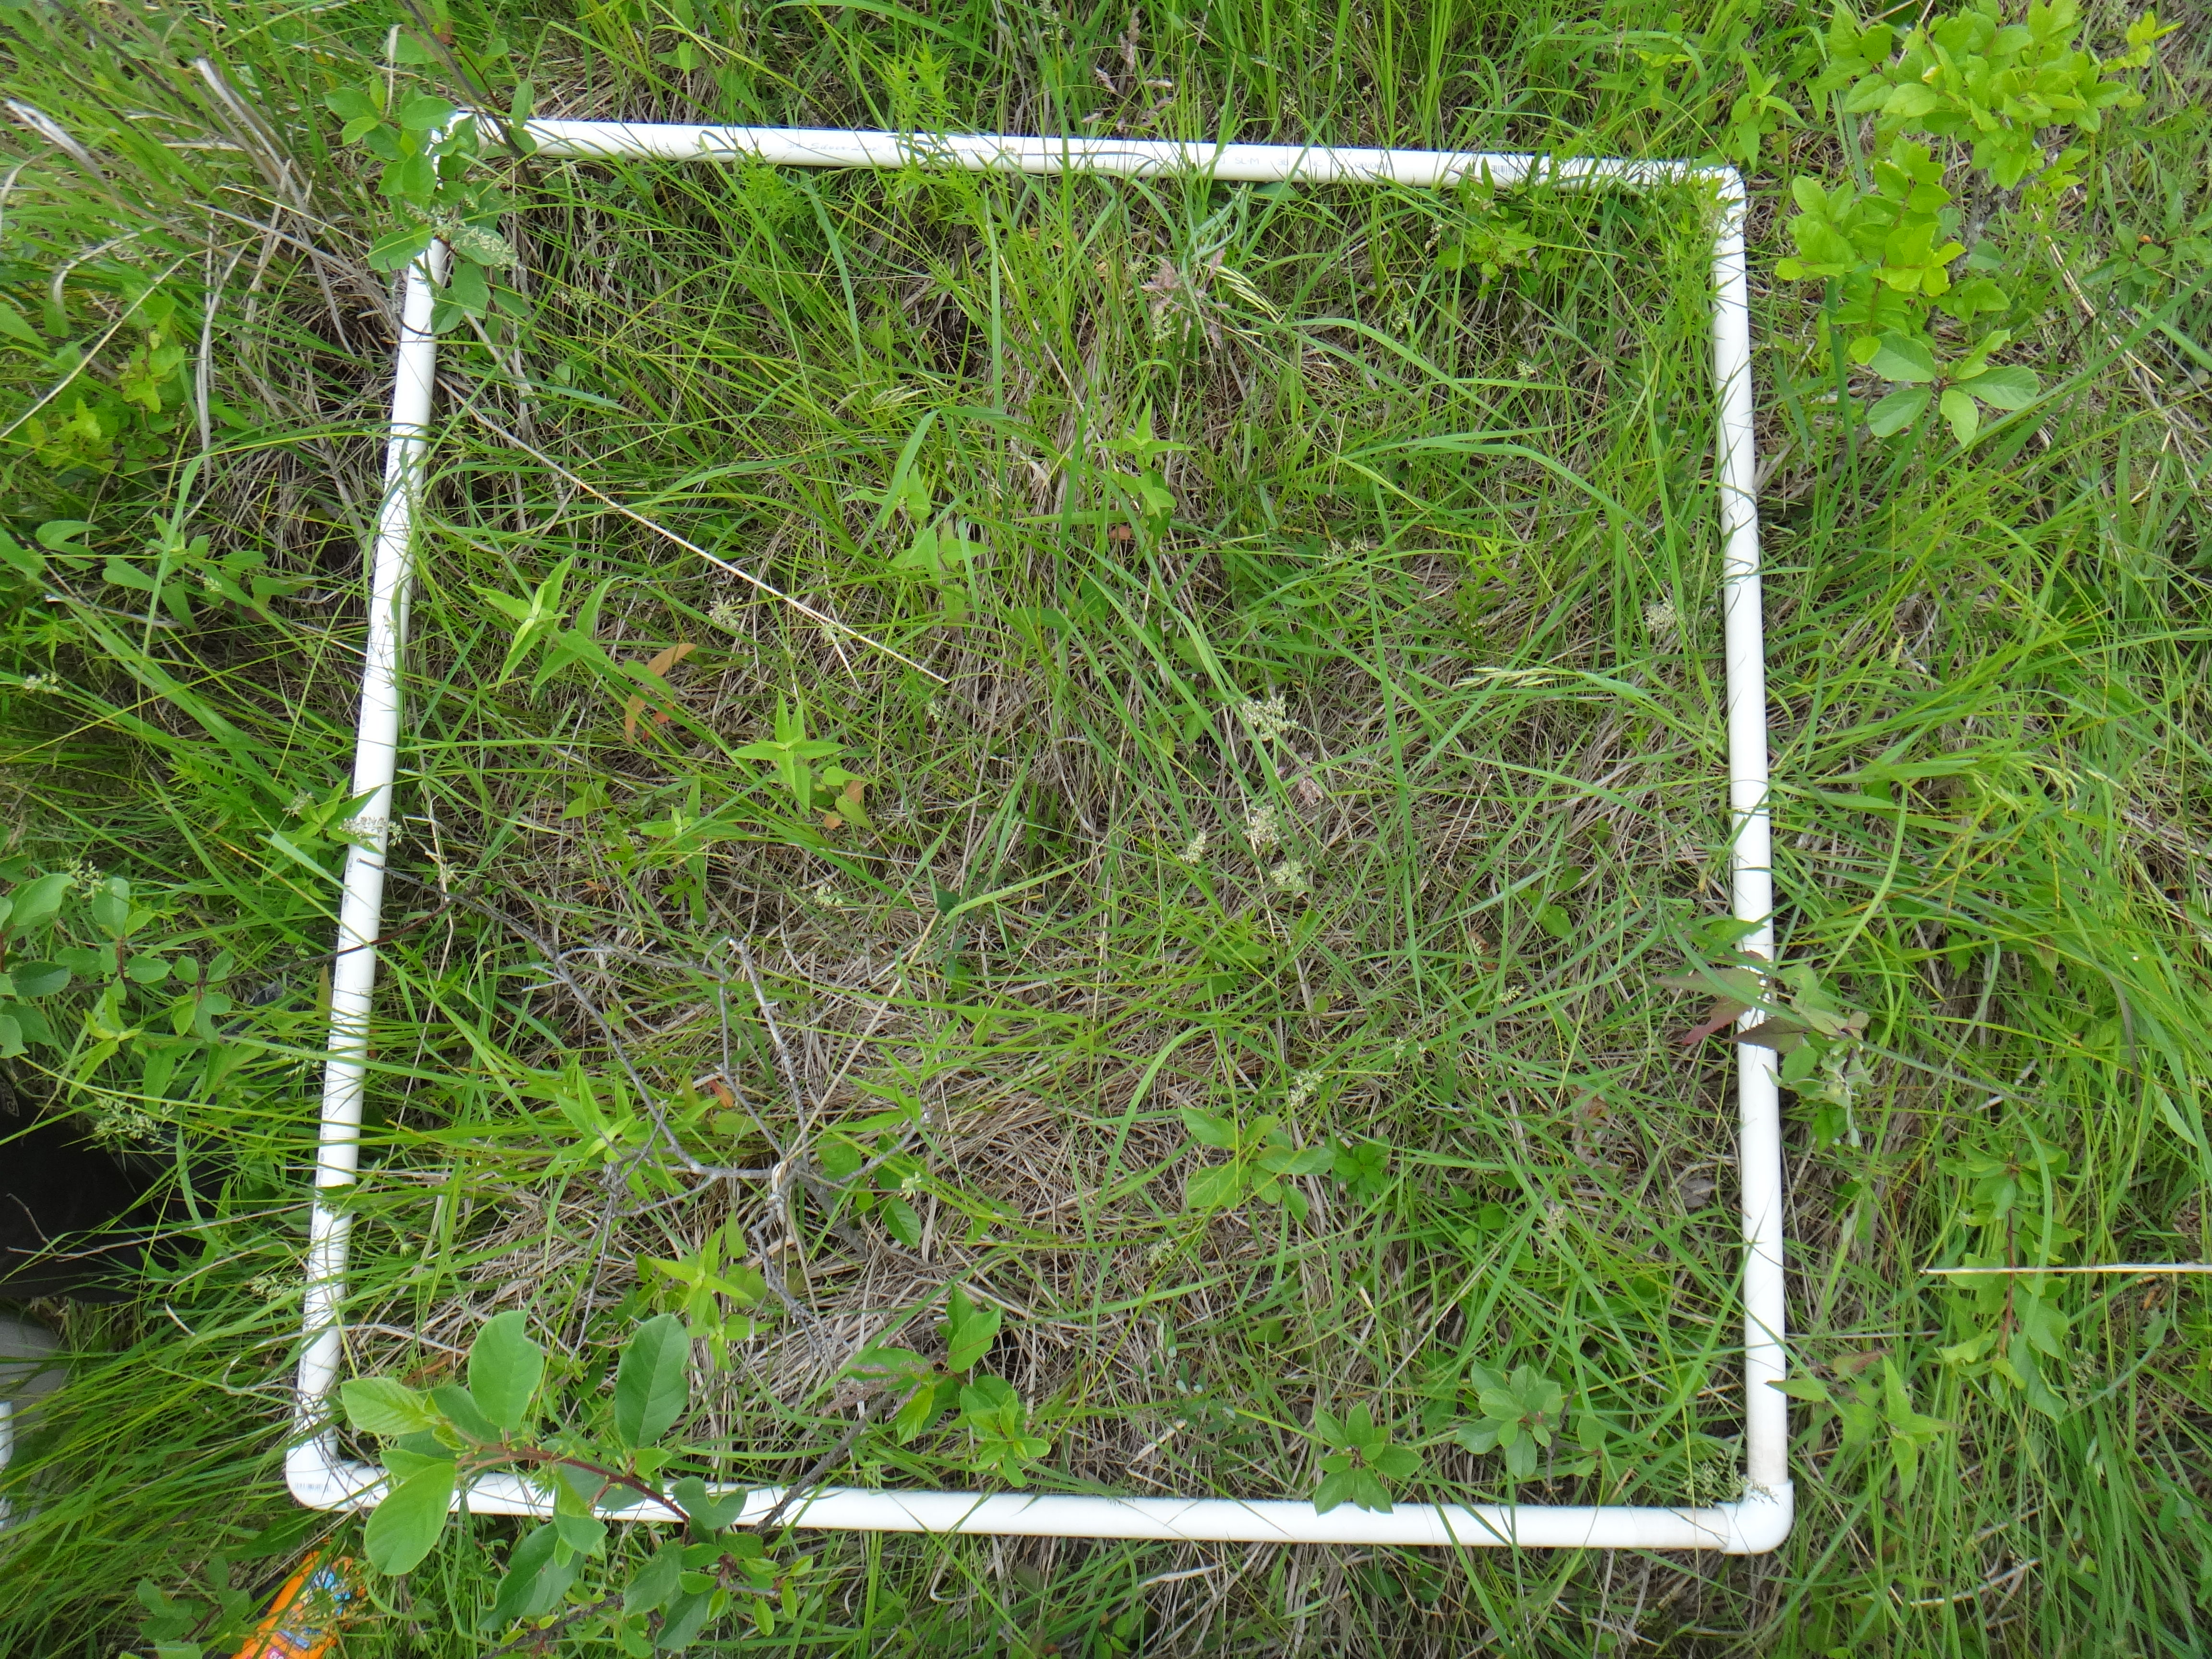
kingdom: Plantae
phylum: Tracheophyta
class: Magnoliopsida
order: Rosales
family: Rosaceae
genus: Dasiphora
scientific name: Dasiphora fruticosa
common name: Shrubby cinquefoil
